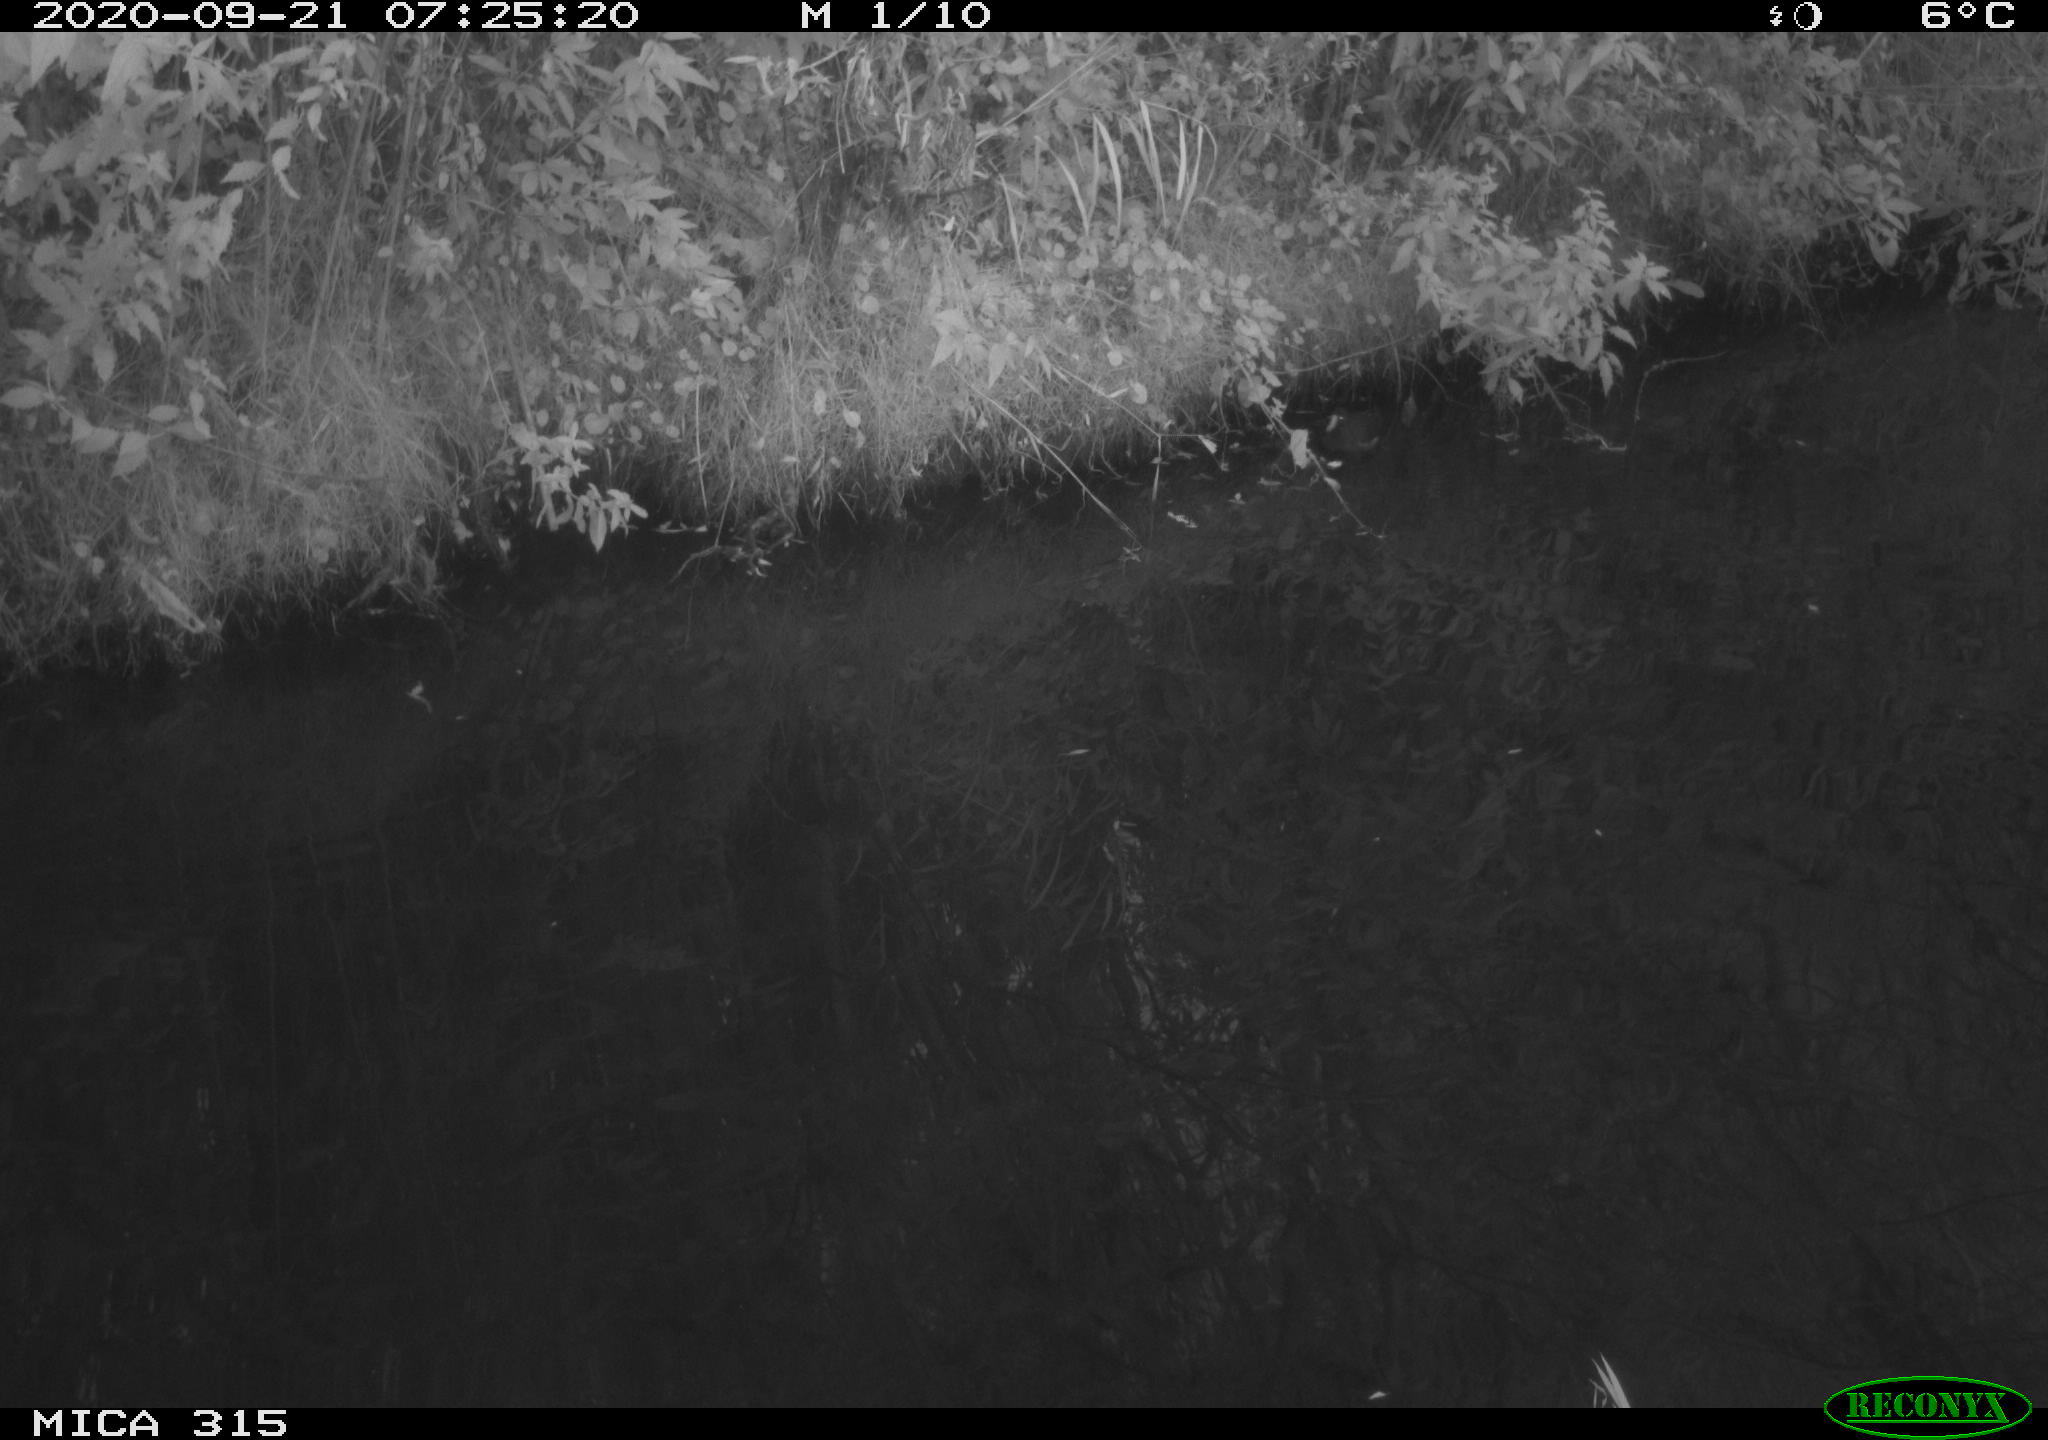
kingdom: Animalia
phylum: Chordata
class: Aves
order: Gruiformes
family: Rallidae
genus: Gallinula
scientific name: Gallinula chloropus
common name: Common moorhen
